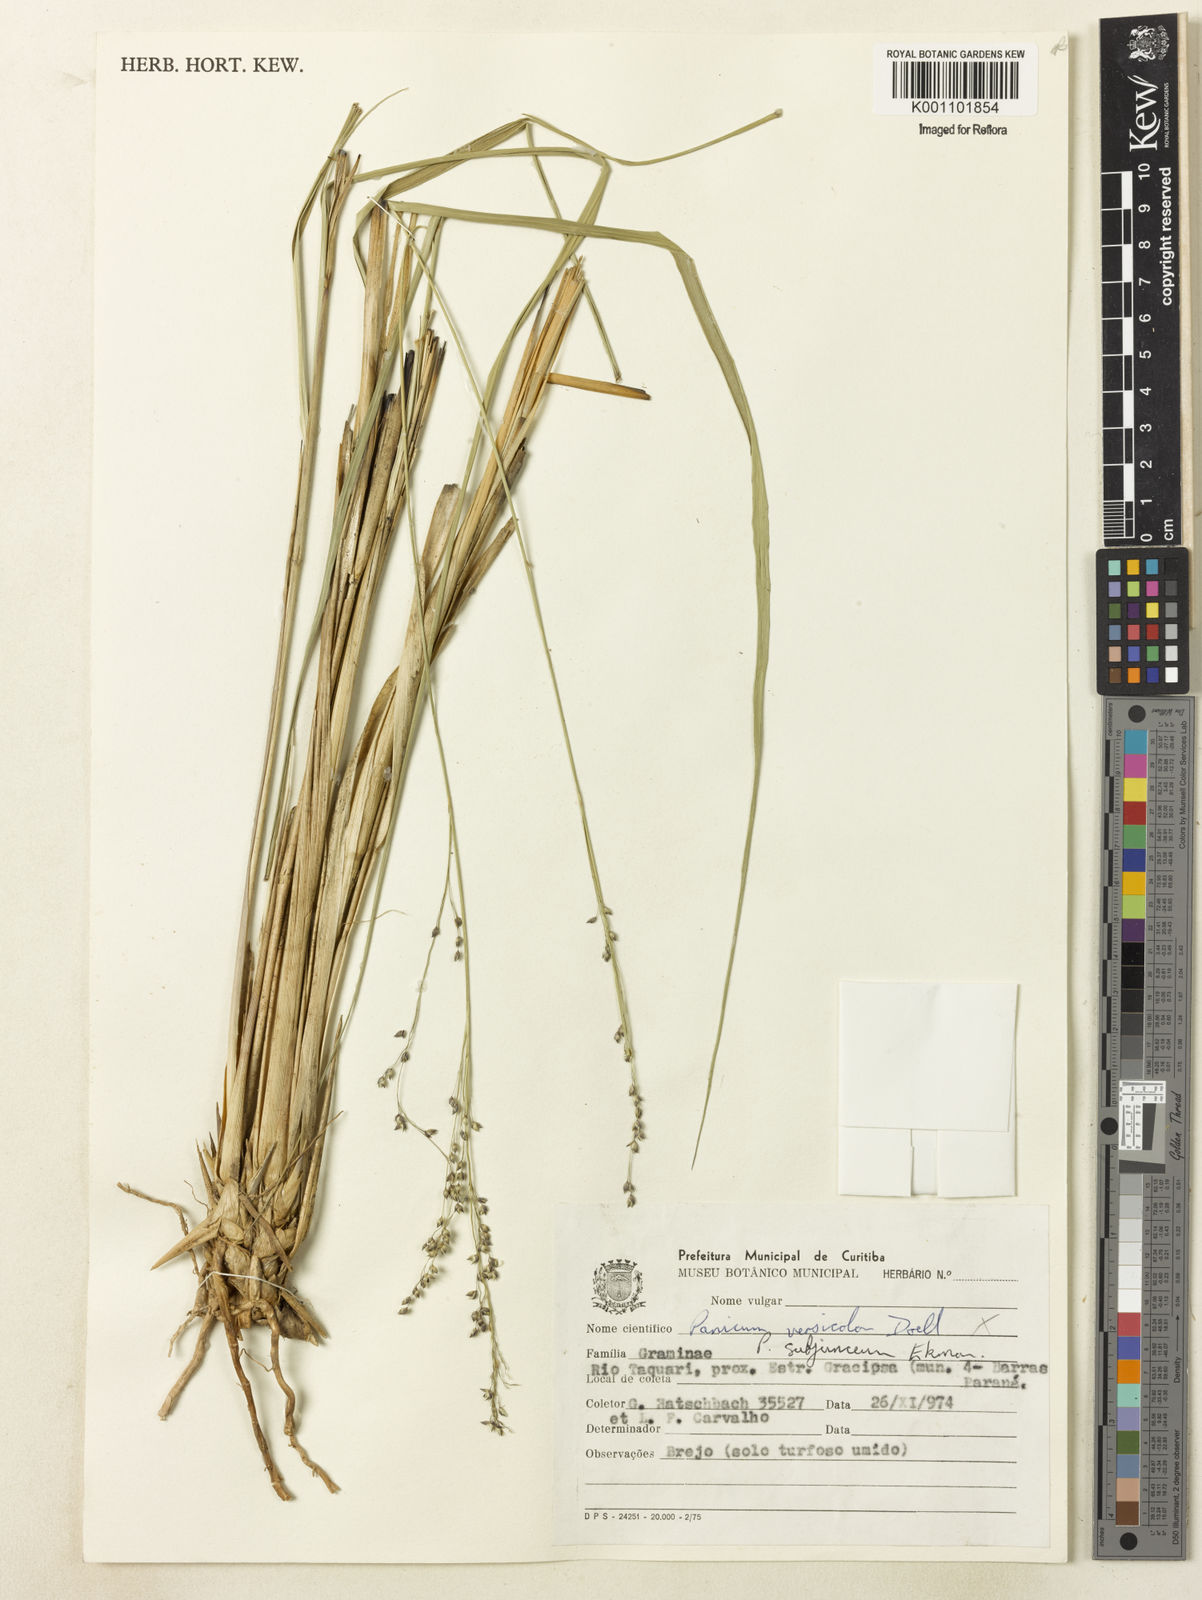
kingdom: Plantae
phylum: Tracheophyta
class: Liliopsida
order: Poales
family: Poaceae
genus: Panicum
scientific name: Panicum glabripes
